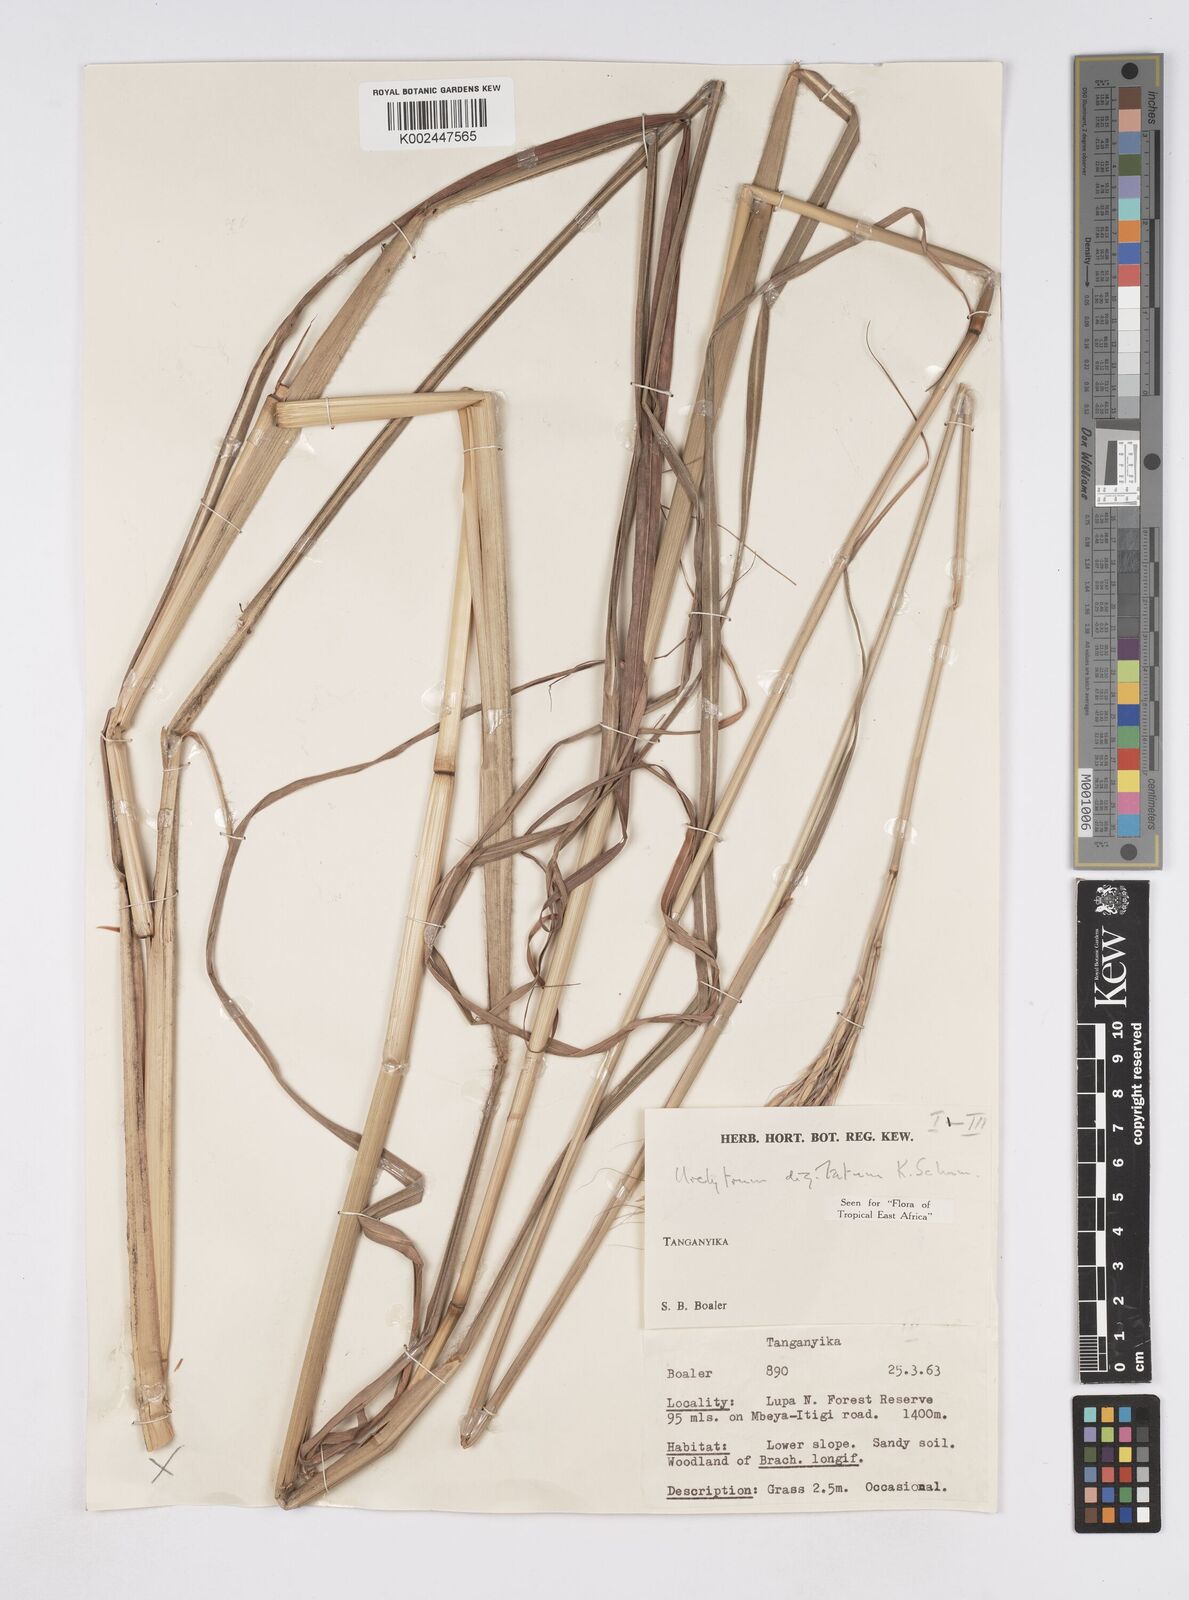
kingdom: Plantae
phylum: Tracheophyta
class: Liliopsida
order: Poales
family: Poaceae
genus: Urelytrum
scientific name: Urelytrum digitatum
